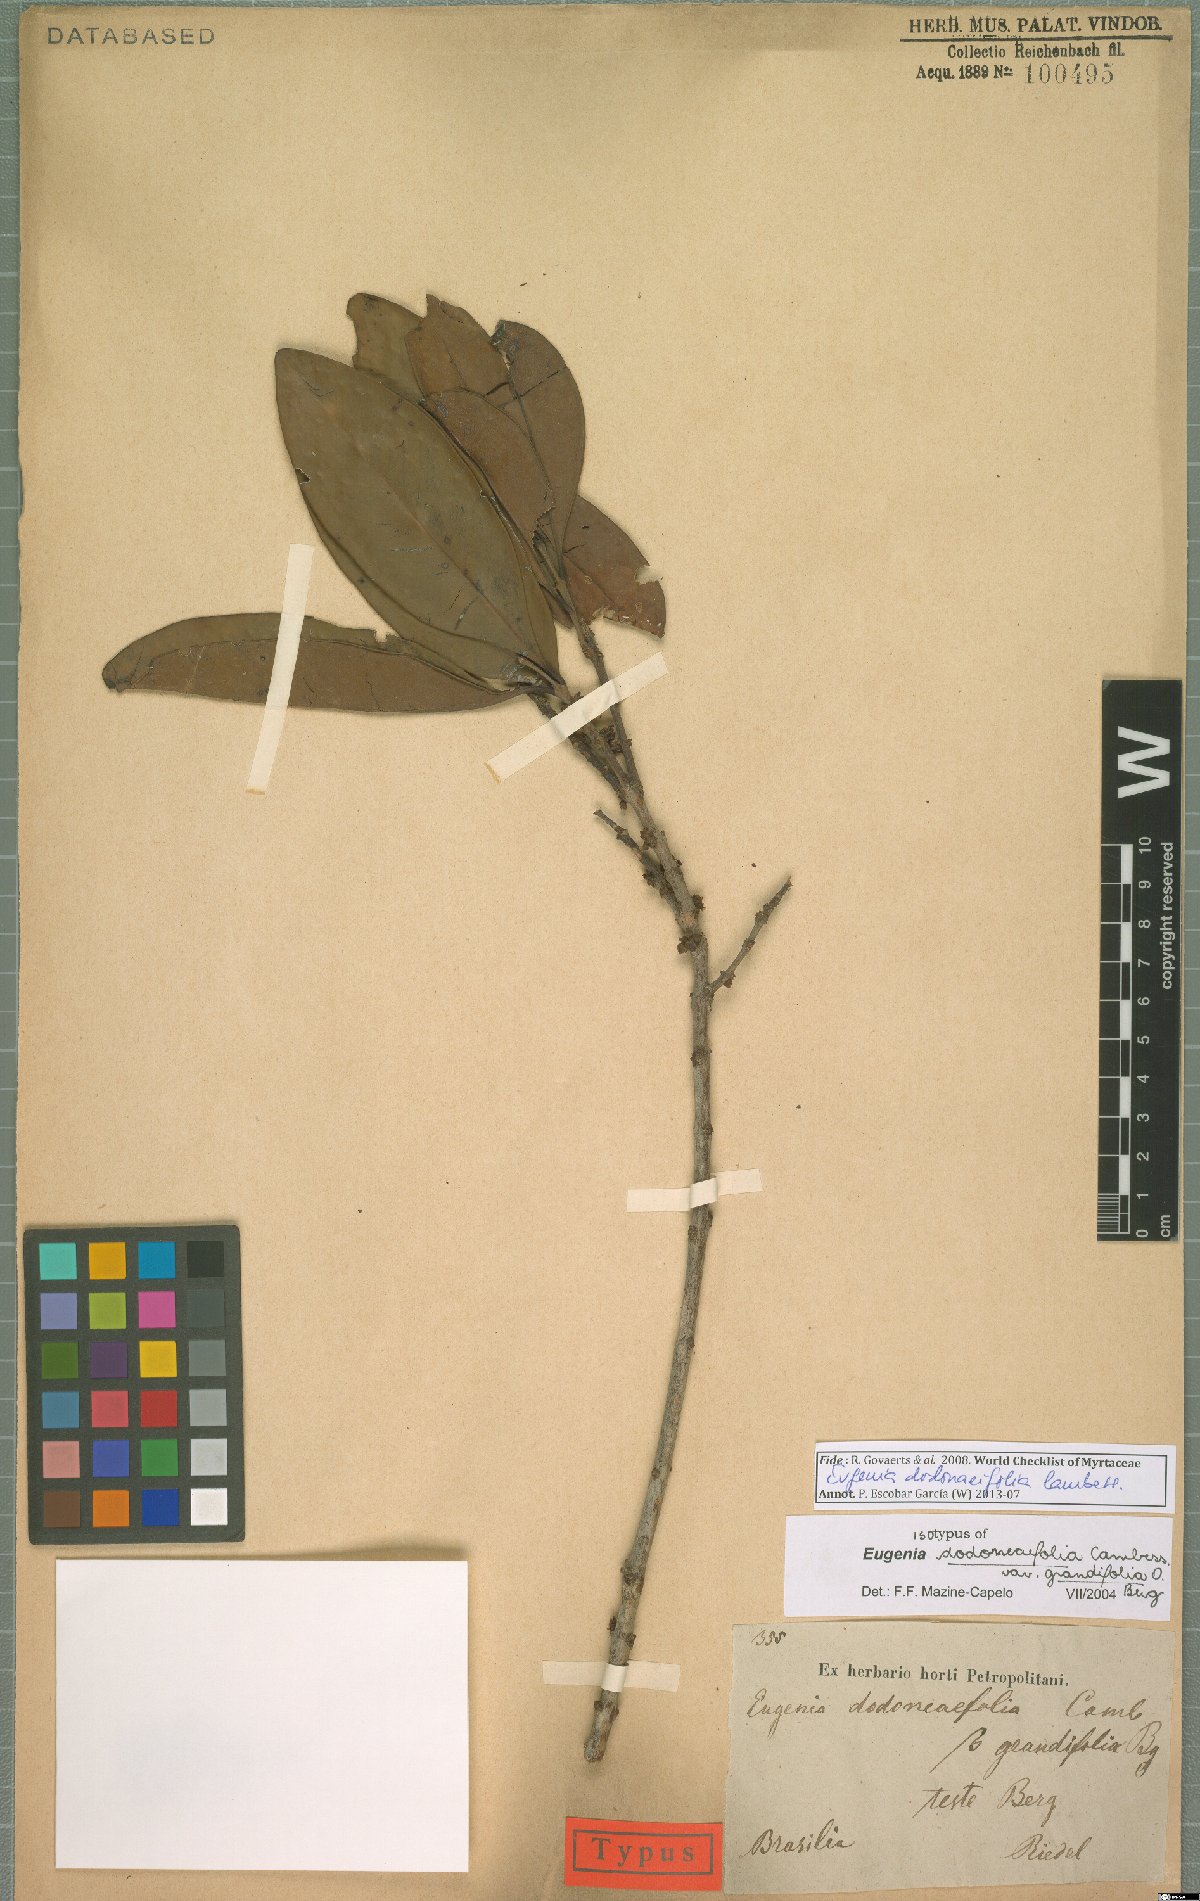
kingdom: Plantae
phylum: Tracheophyta
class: Magnoliopsida
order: Myrtales
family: Myrtaceae
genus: Eugenia
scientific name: Eugenia dodonaeifolia
